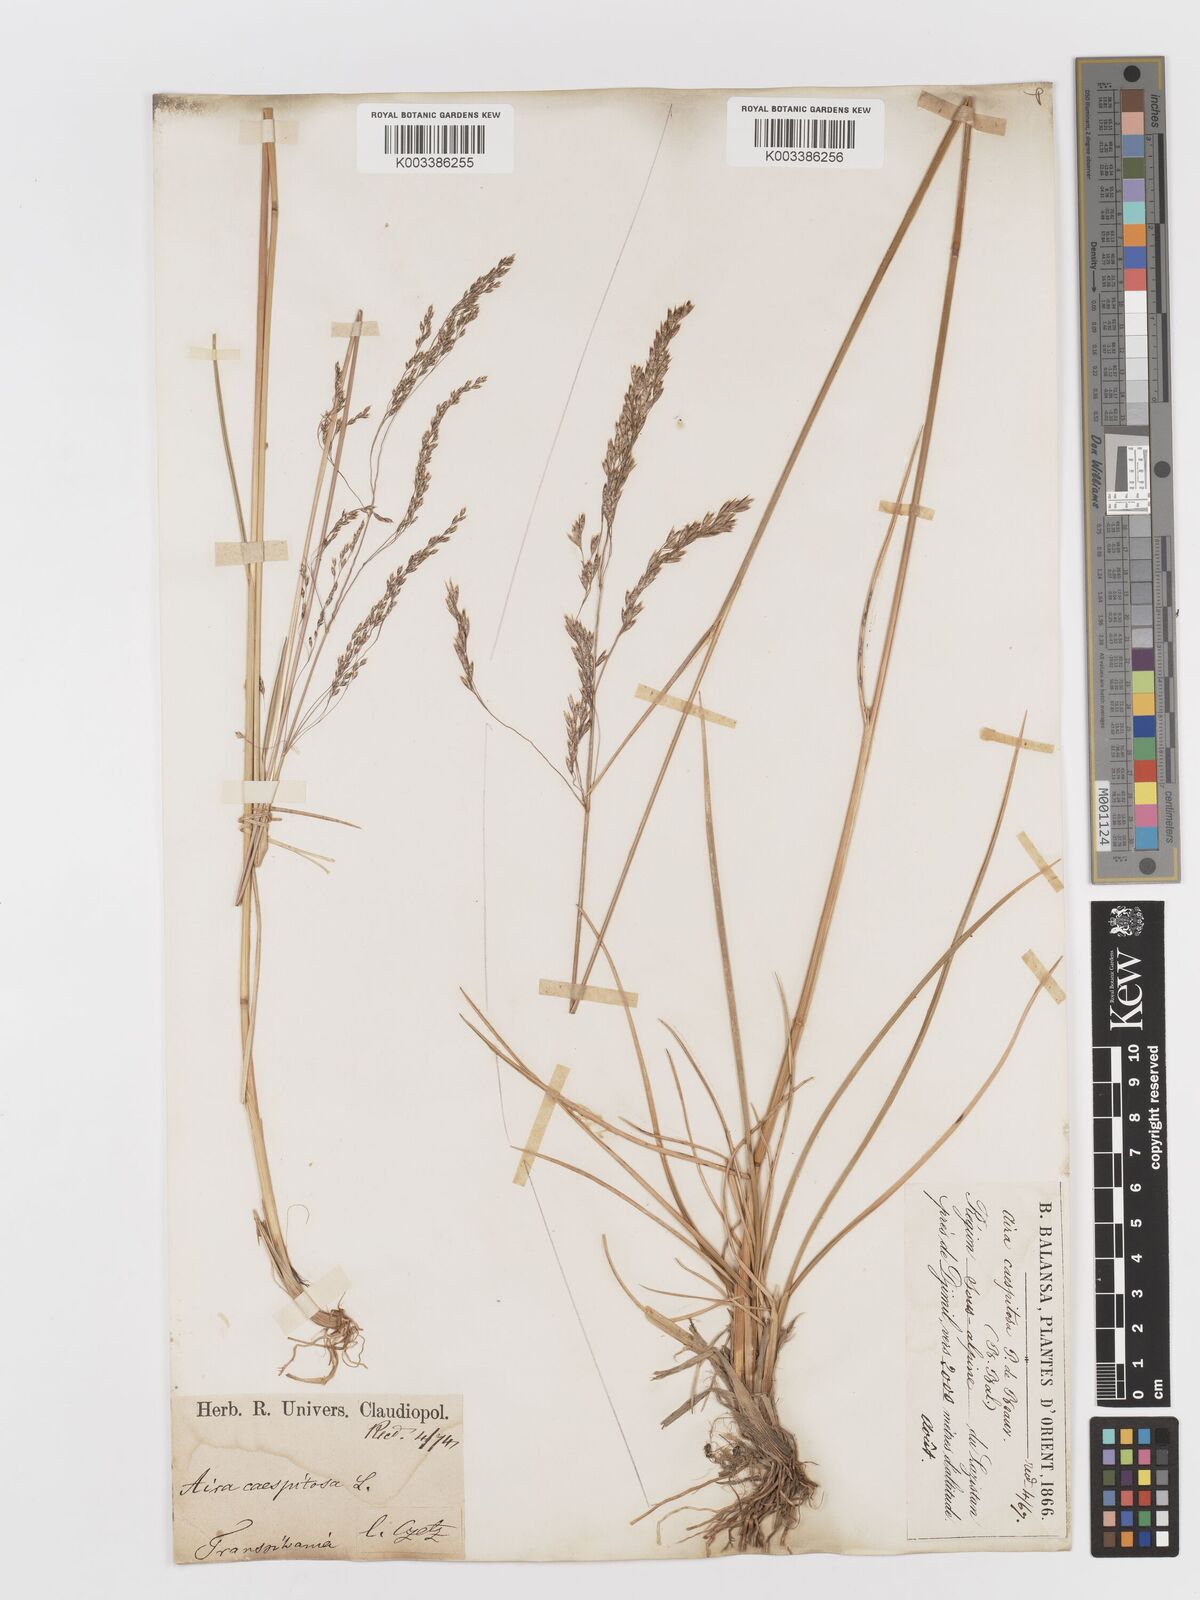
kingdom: Plantae
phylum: Tracheophyta
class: Liliopsida
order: Poales
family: Poaceae
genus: Deschampsia
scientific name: Deschampsia cespitosa
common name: Tufted hair-grass
